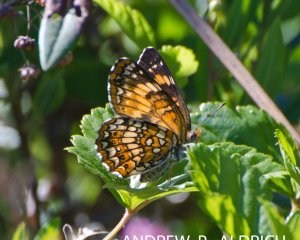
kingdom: Animalia
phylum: Arthropoda
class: Insecta
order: Lepidoptera
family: Nymphalidae
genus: Chlosyne
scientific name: Chlosyne harrisii
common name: Harris's Checkerspot
